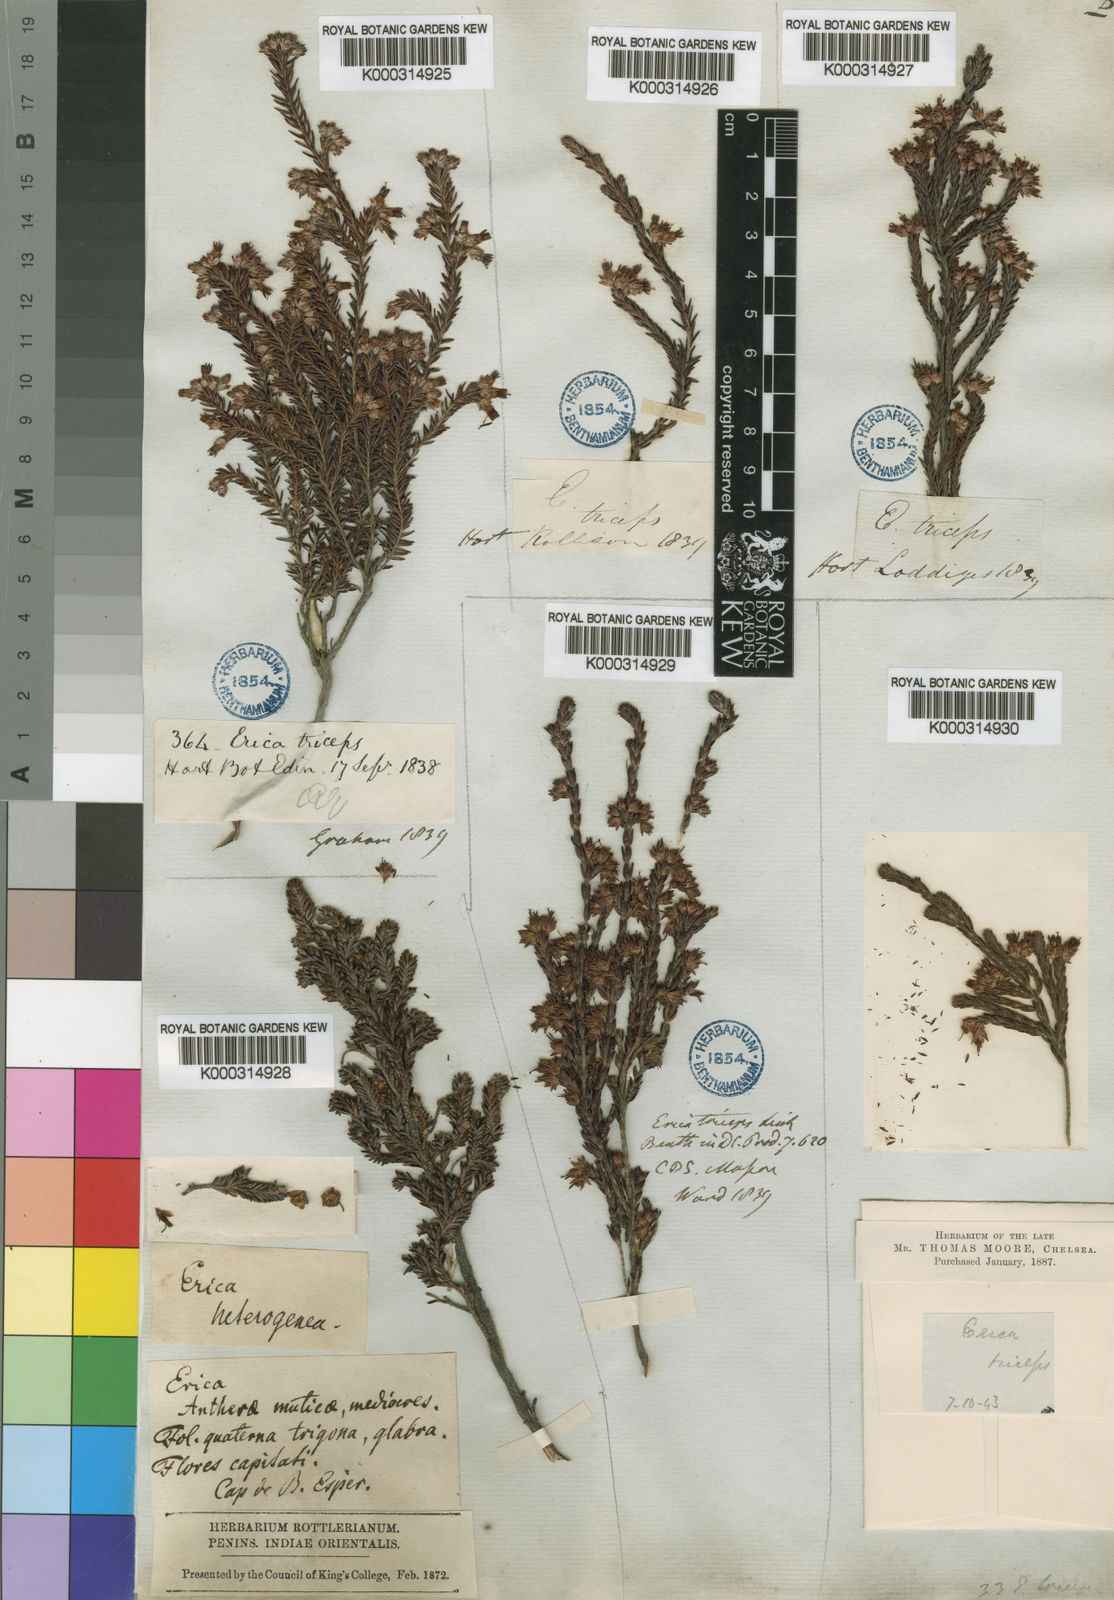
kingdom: Plantae
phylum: Tracheophyta
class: Magnoliopsida
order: Ericales
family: Ericaceae
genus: Erica
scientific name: Erica triceps
